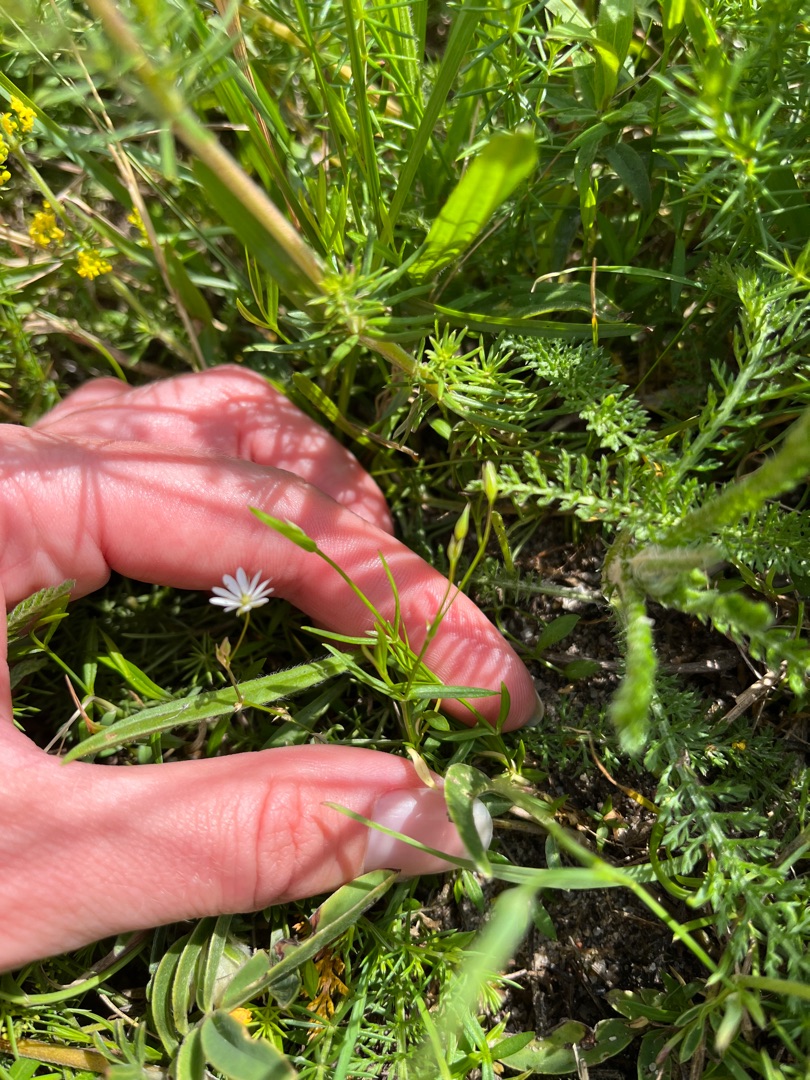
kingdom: Plantae
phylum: Tracheophyta
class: Magnoliopsida
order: Caryophyllales
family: Caryophyllaceae
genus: Stellaria
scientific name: Stellaria graminea
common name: Græsbladet fladstjerne
